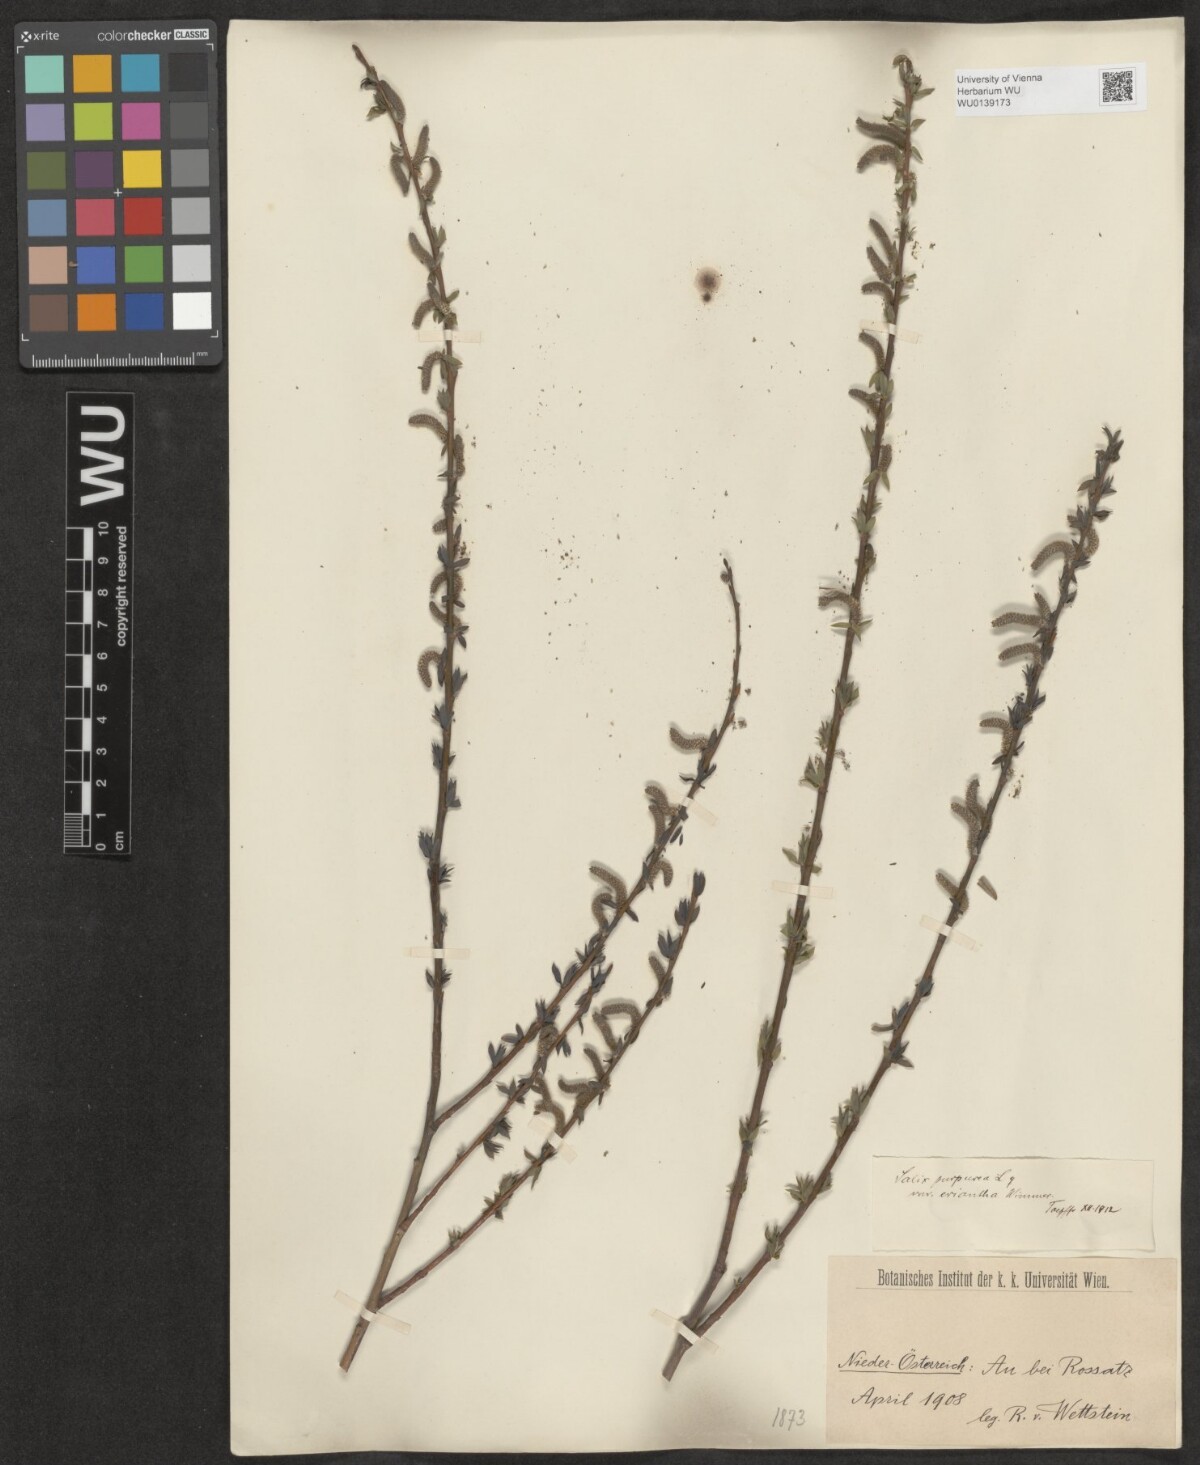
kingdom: Plantae
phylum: Tracheophyta
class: Magnoliopsida
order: Malpighiales
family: Salicaceae
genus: Salix
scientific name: Salix purpurea
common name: Purple willow
